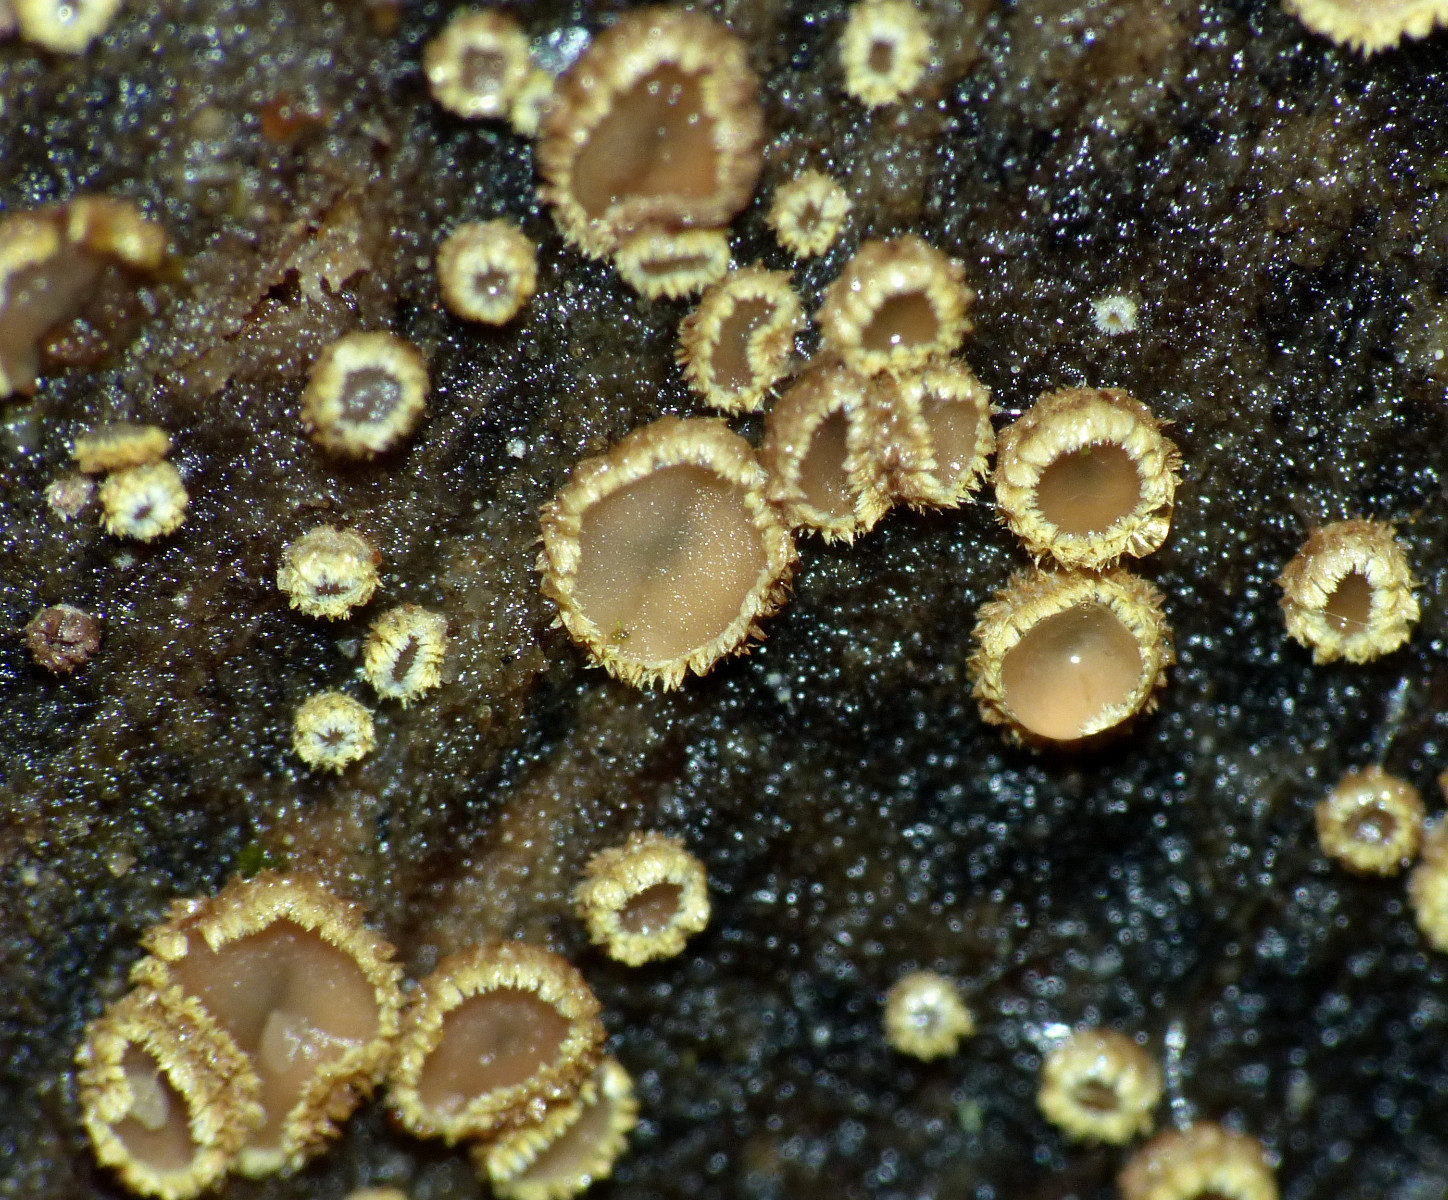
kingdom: Fungi
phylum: Ascomycota
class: Leotiomycetes
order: Helotiales
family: Lachnaceae
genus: Trichopeziza
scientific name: Trichopeziza subsulphurea
